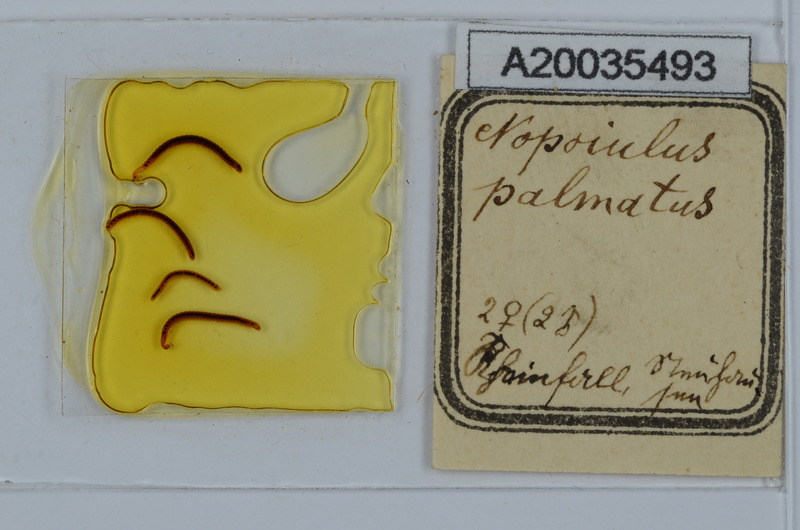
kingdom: Animalia
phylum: Arthropoda
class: Diplopoda
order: Julida
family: Blaniulidae
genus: Nopoiulus
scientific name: Nopoiulus palmatus
